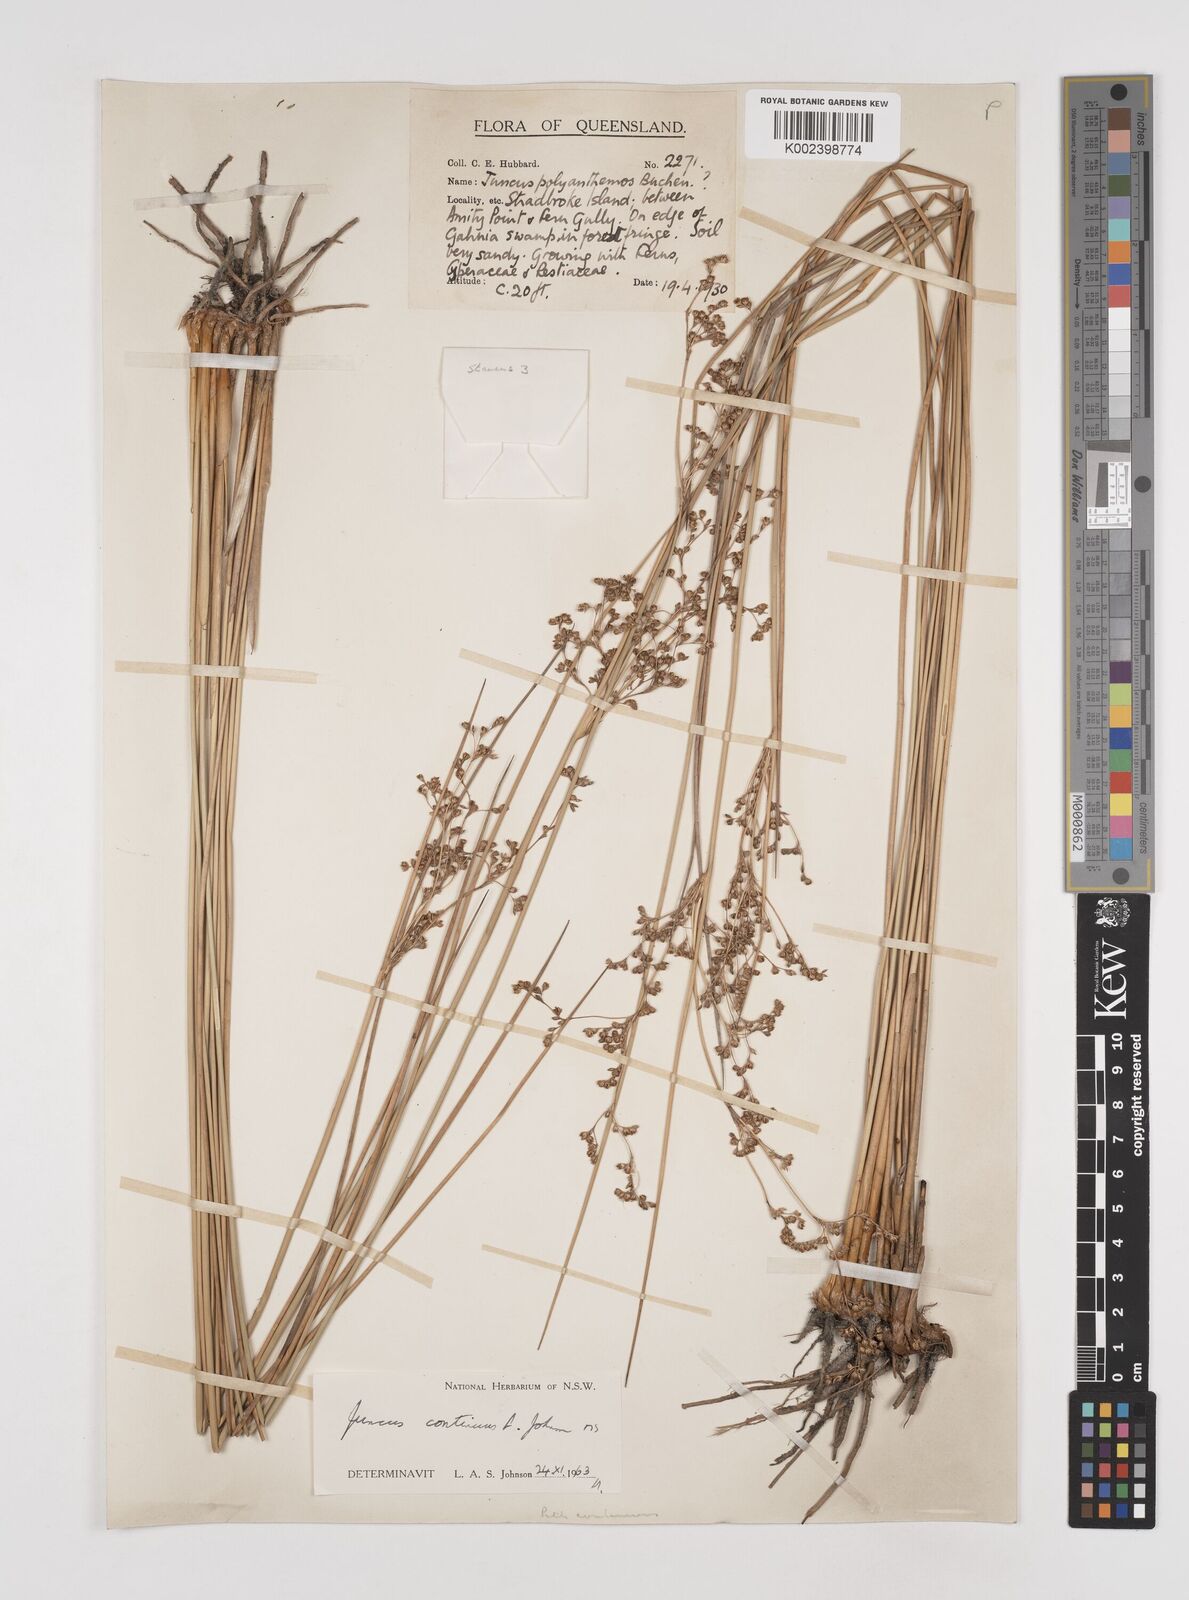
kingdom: Plantae
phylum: Tracheophyta
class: Liliopsida
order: Poales
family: Juncaceae
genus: Juncus
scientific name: Juncus continuus
